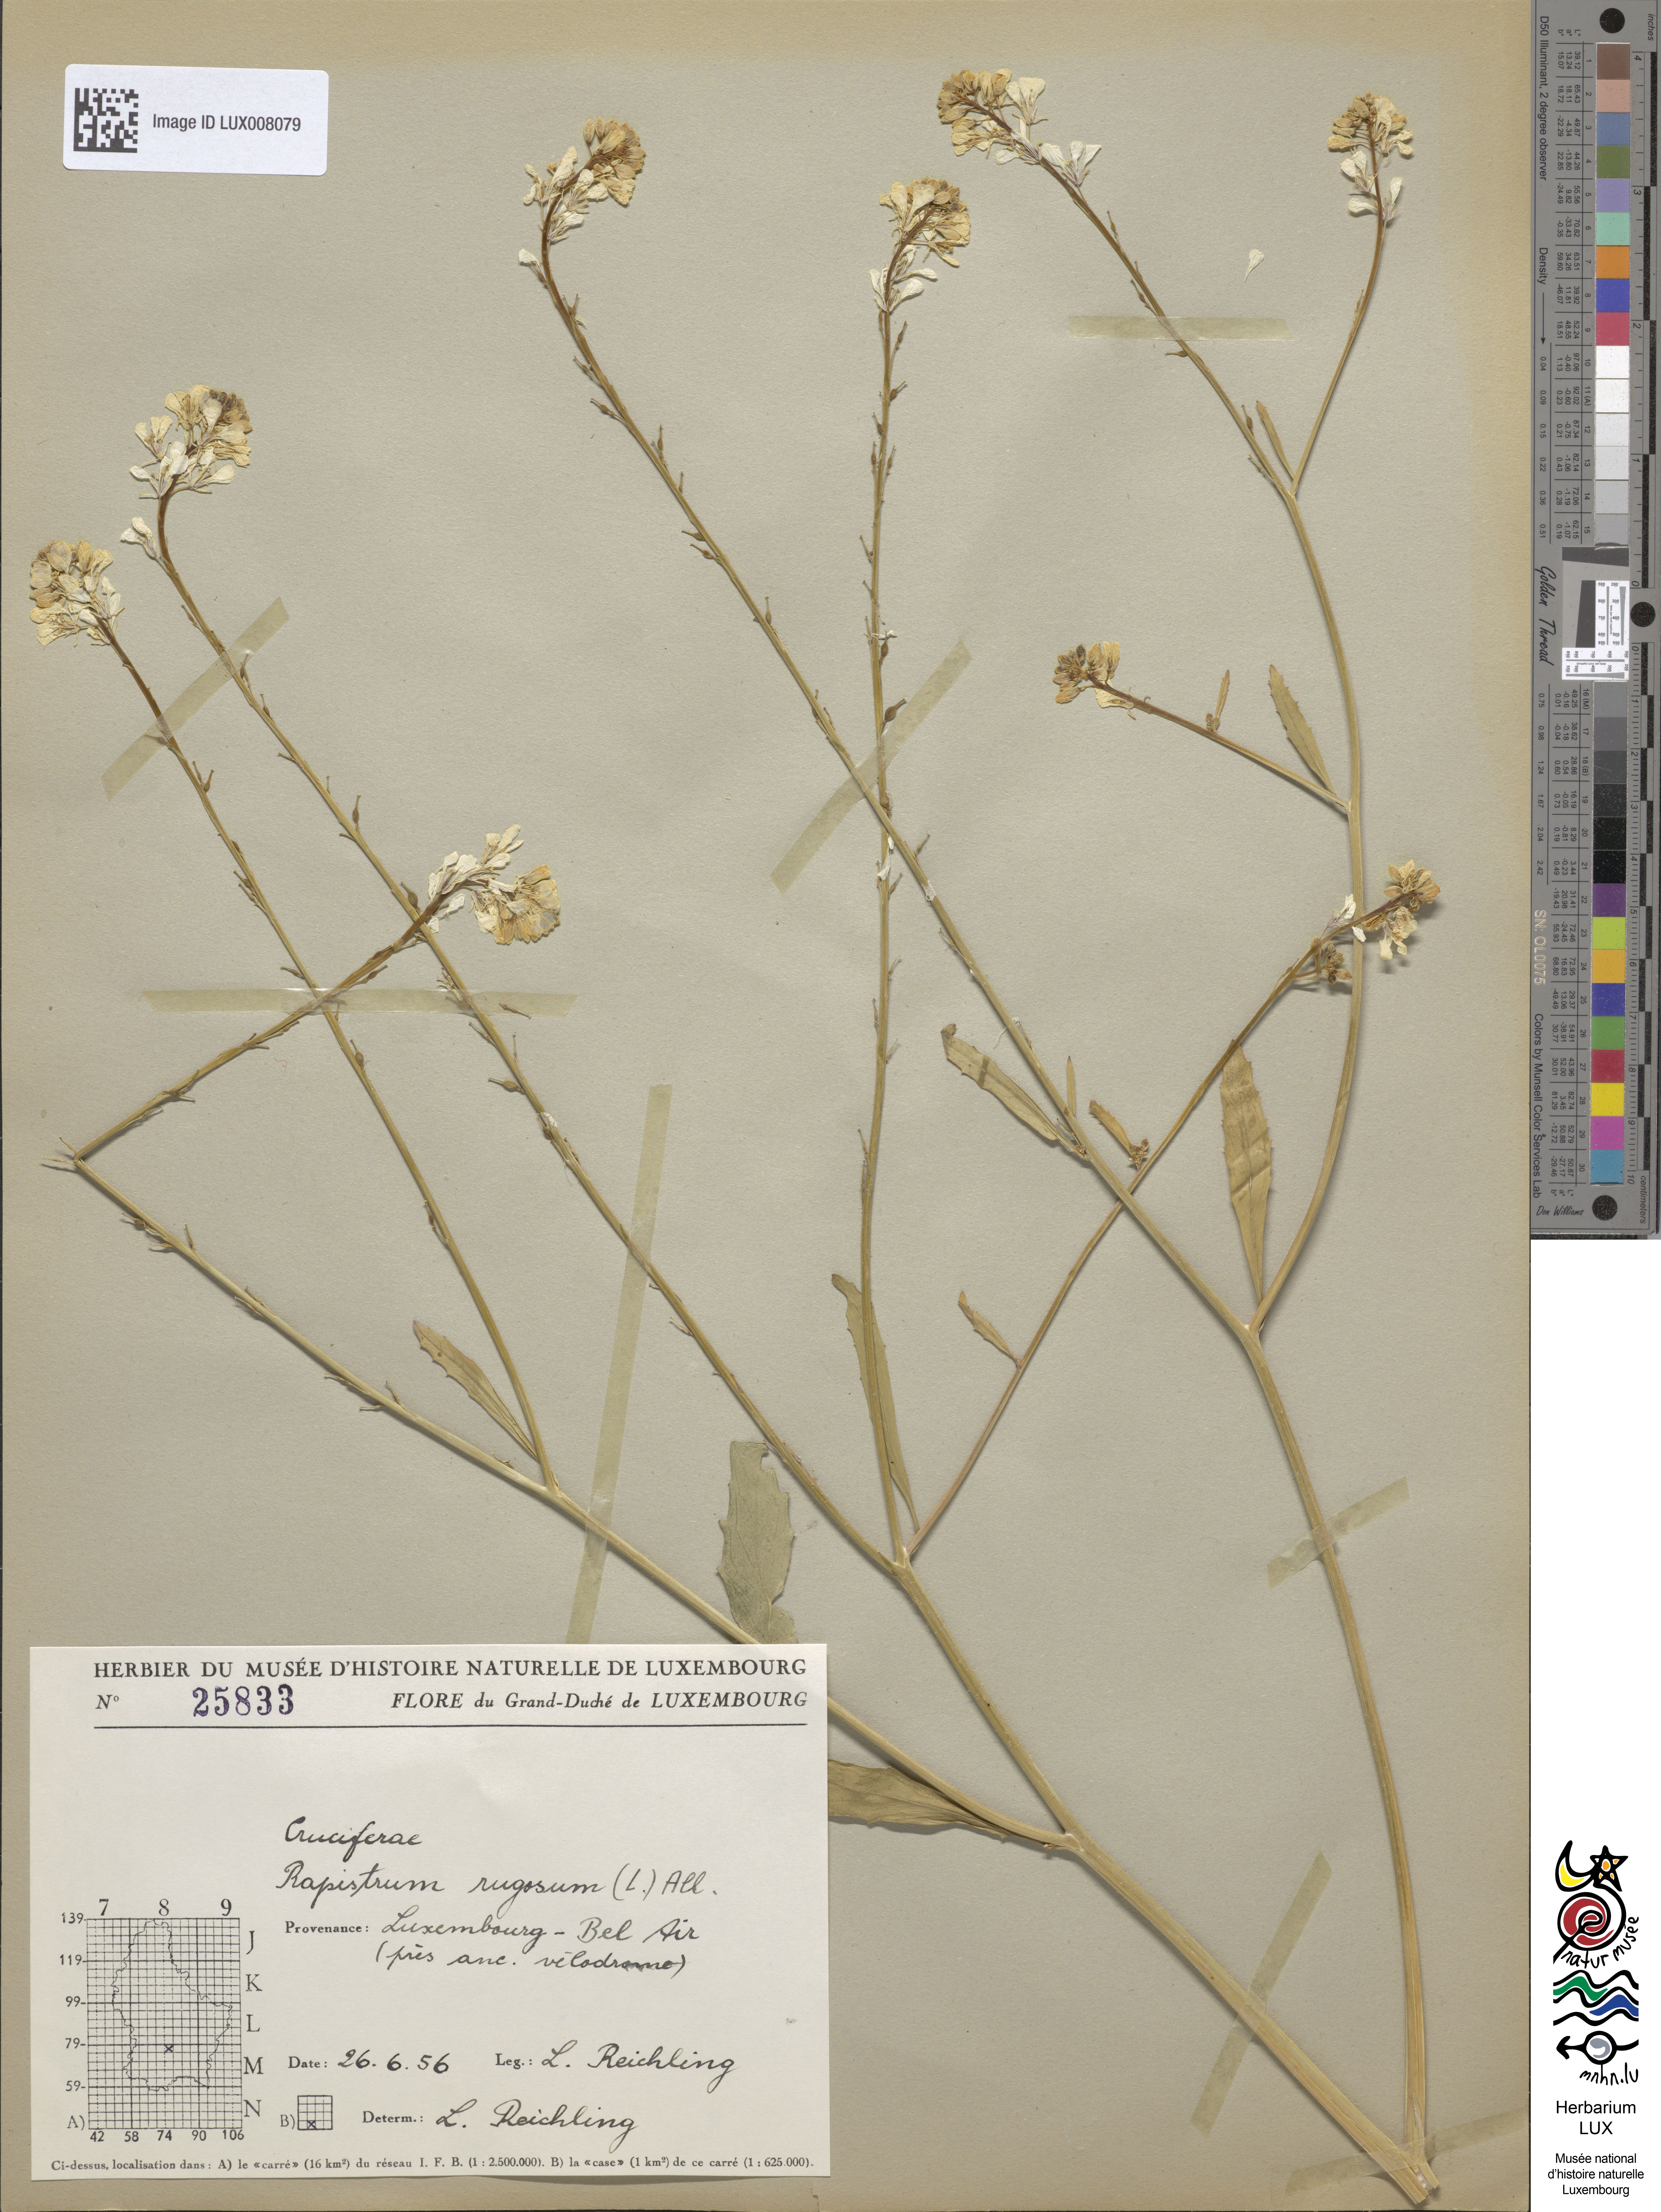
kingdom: Plantae
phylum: Tracheophyta
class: Magnoliopsida
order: Brassicales
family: Brassicaceae
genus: Rapistrum
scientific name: Rapistrum rugosum
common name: Annual bastardcabbage
